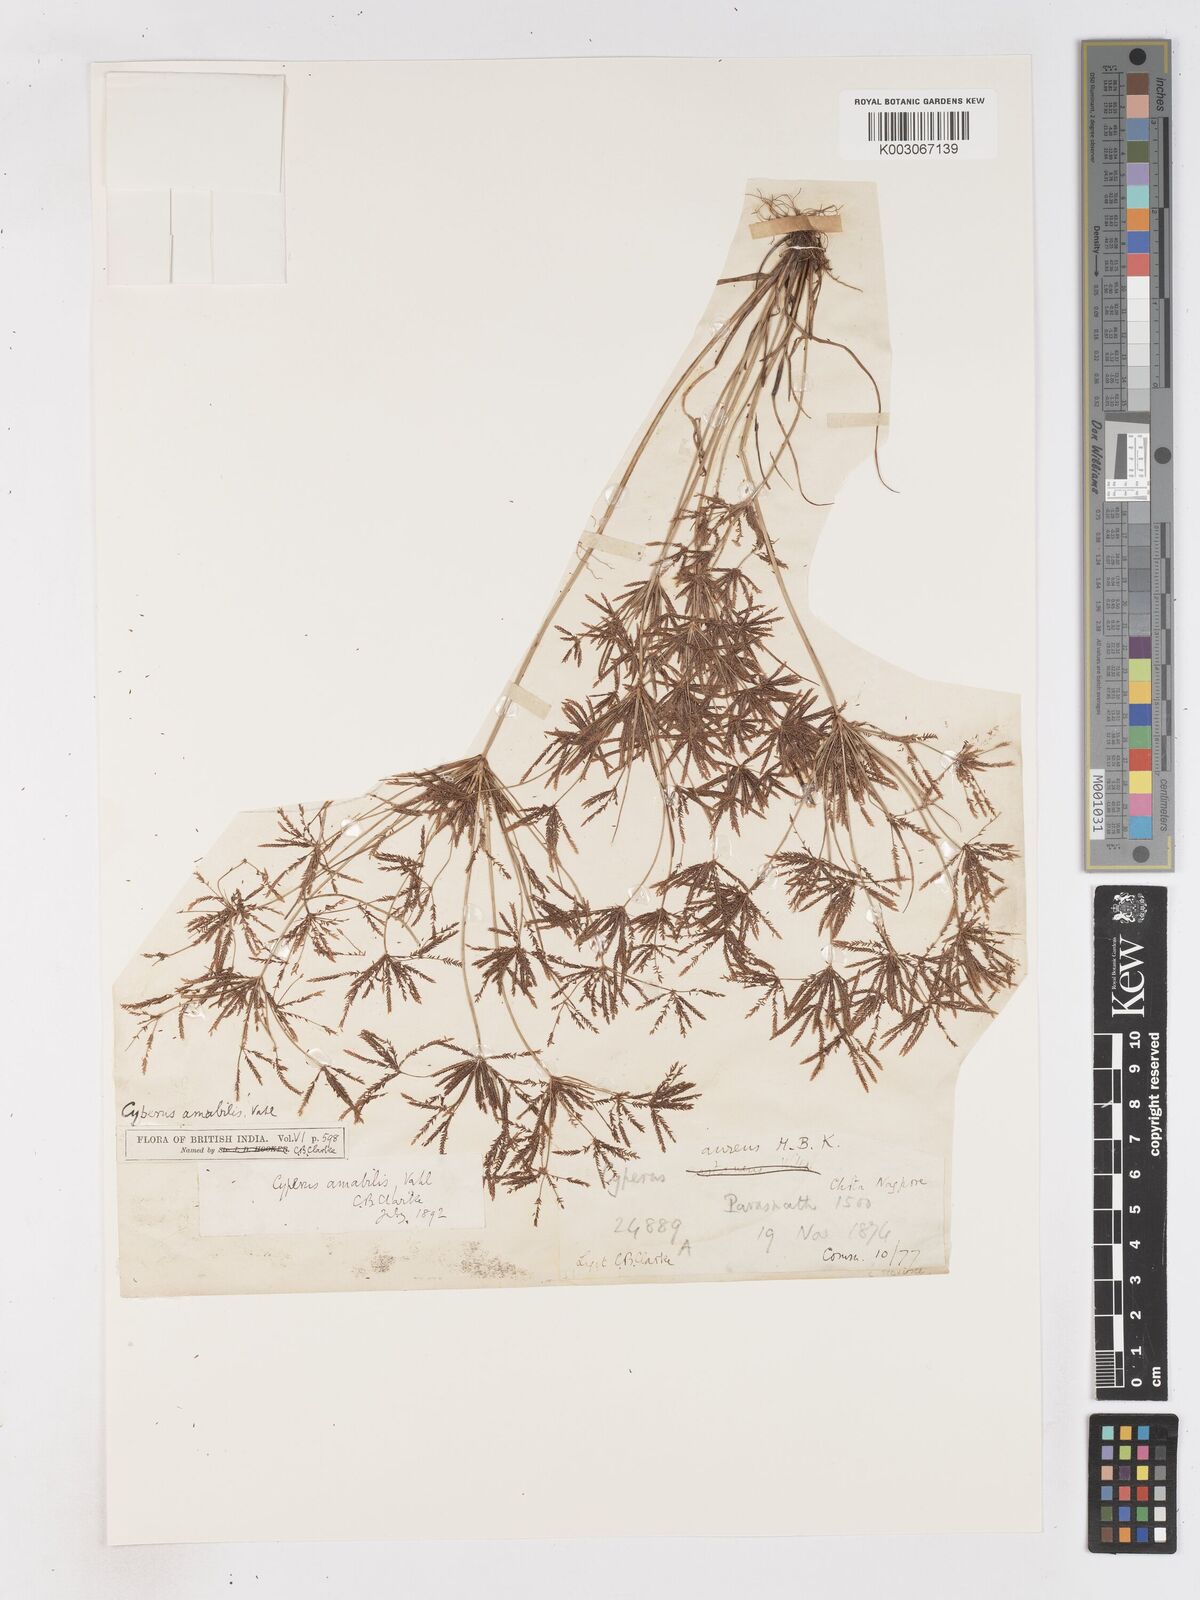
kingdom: Plantae
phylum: Tracheophyta
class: Liliopsida
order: Poales
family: Cyperaceae
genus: Cyperus
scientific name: Cyperus amabilis
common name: Foothill flat sedge
